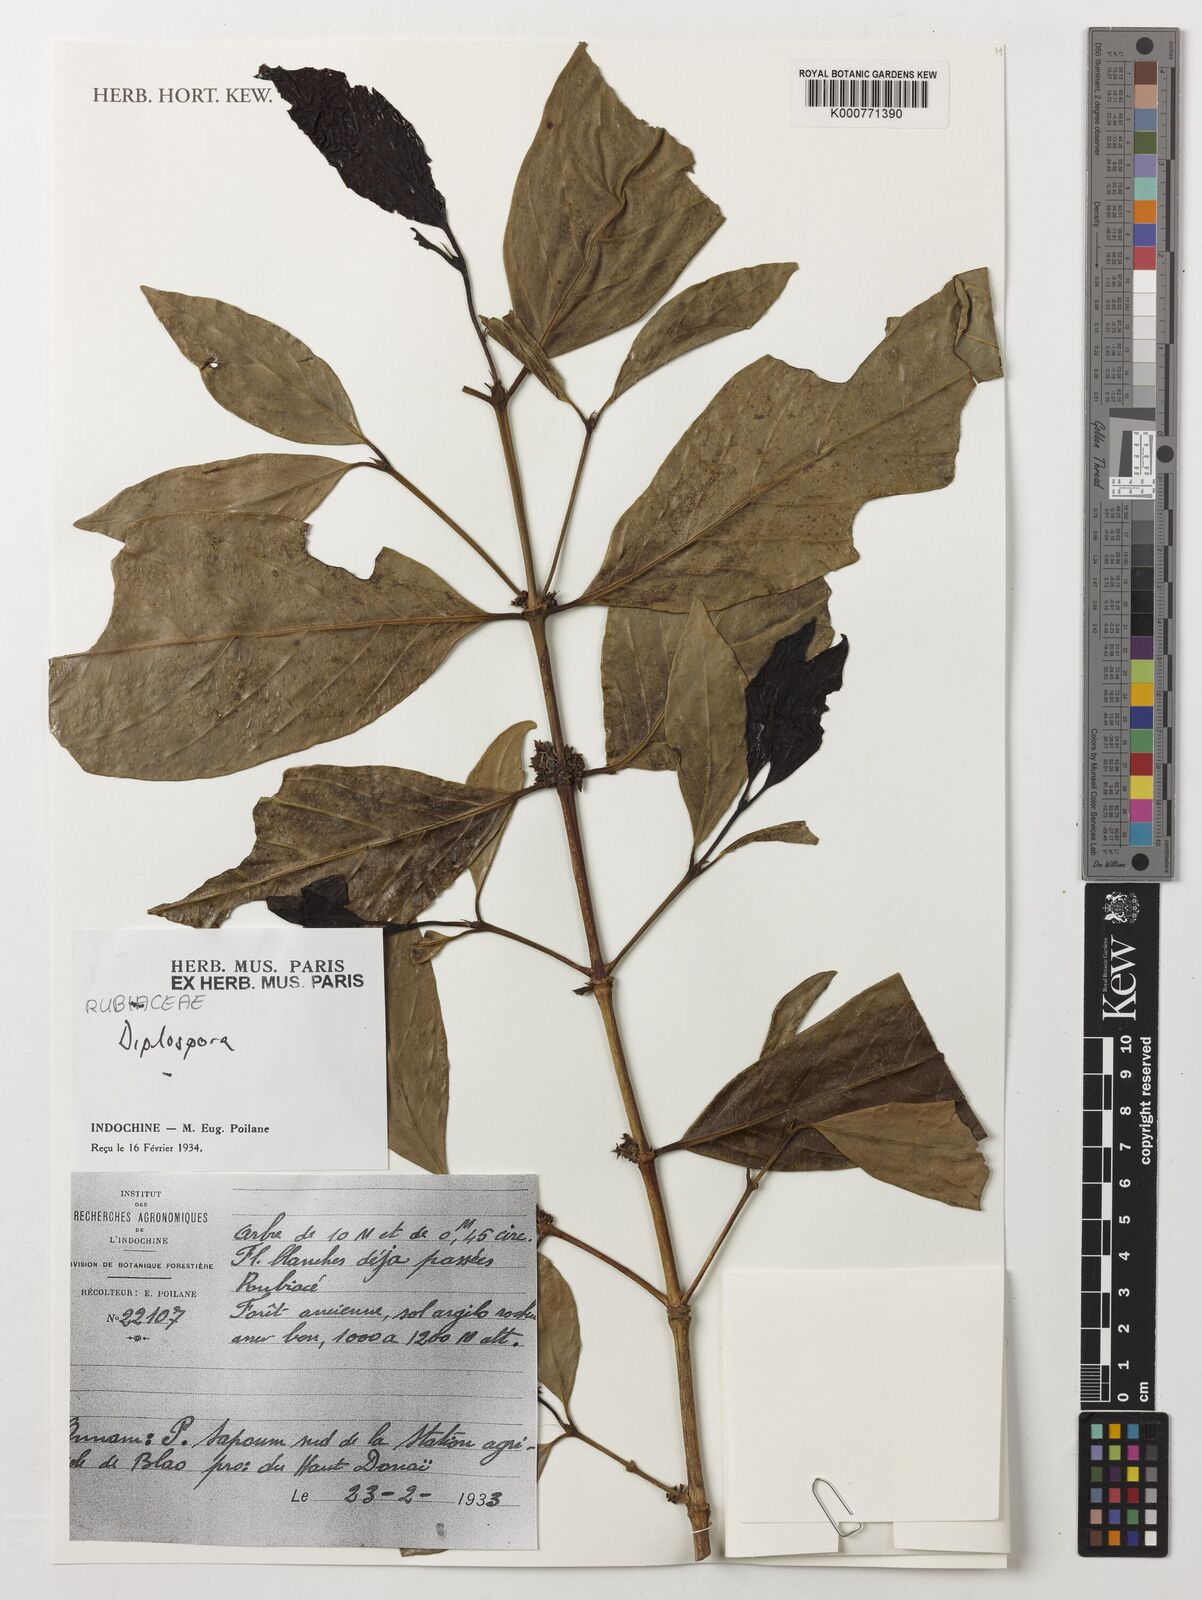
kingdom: Plantae
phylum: Tracheophyta
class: Magnoliopsida
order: Gentianales
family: Rubiaceae
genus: Diplospora
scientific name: Diplospora
